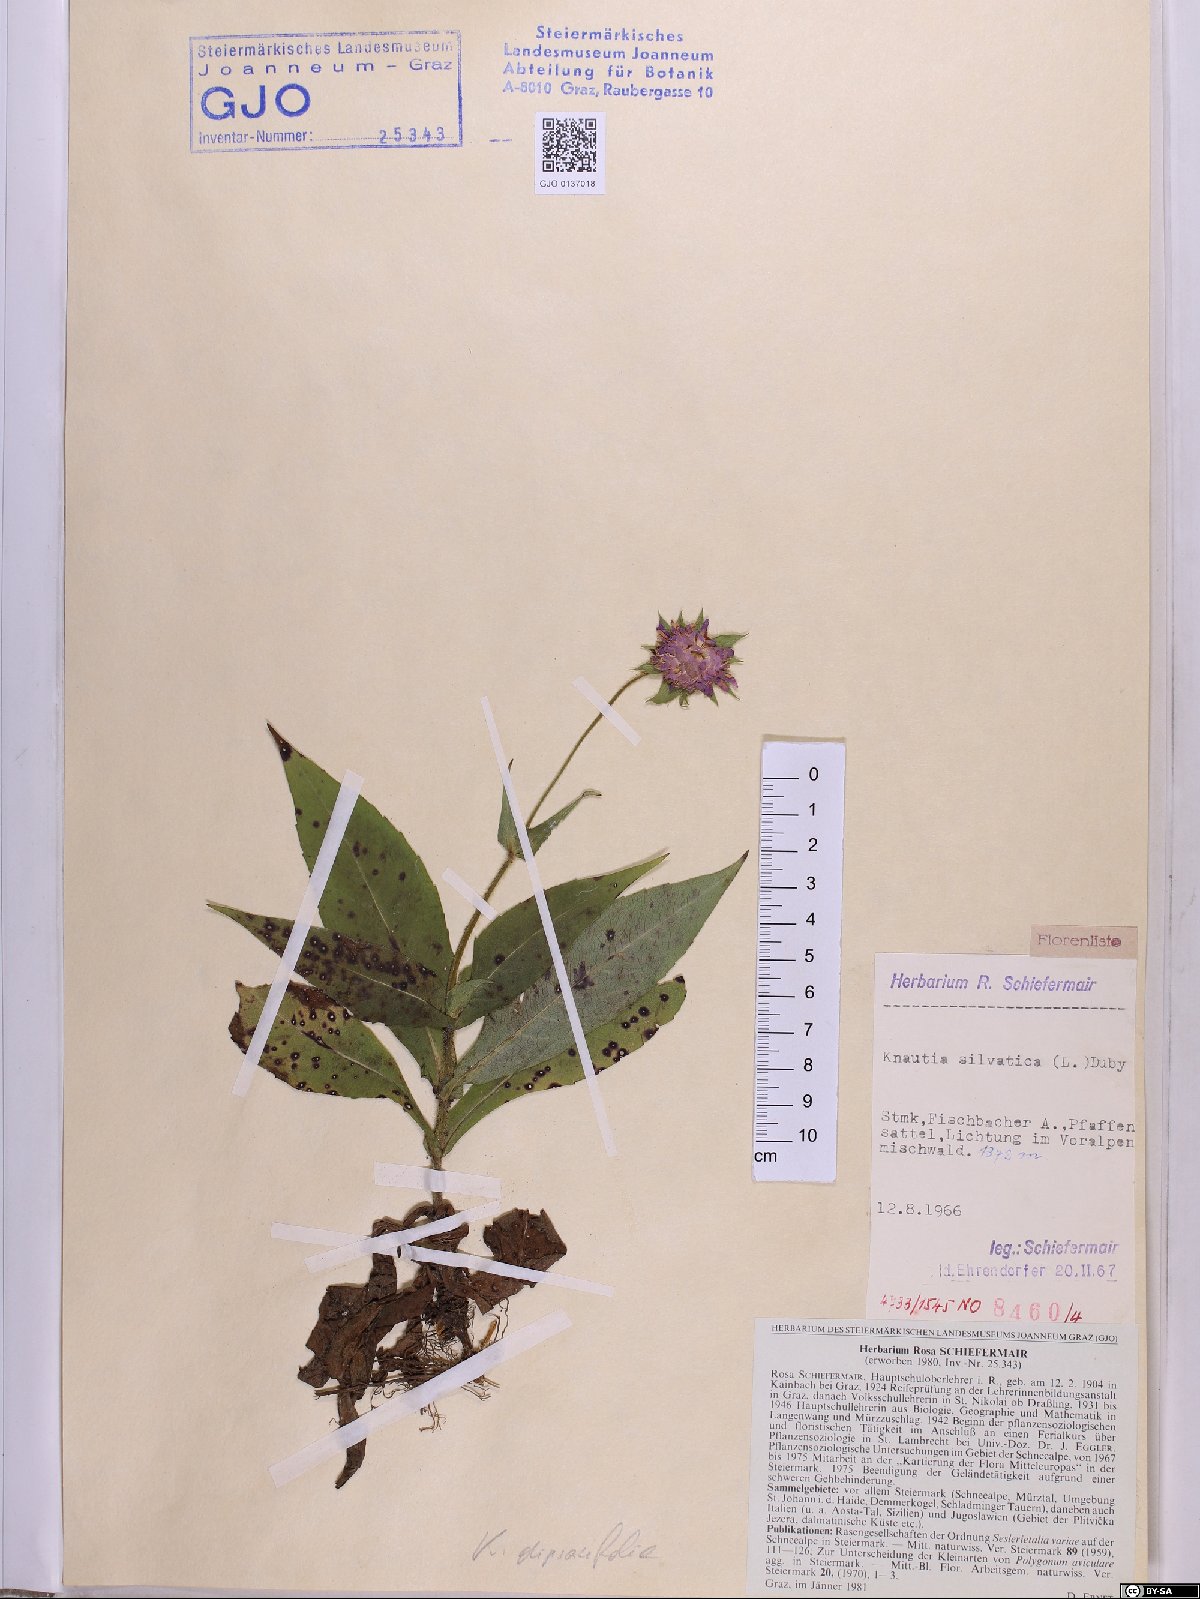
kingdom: Plantae
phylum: Tracheophyta
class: Magnoliopsida
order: Dipsacales
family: Caprifoliaceae
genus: Knautia
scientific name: Knautia drymeia
